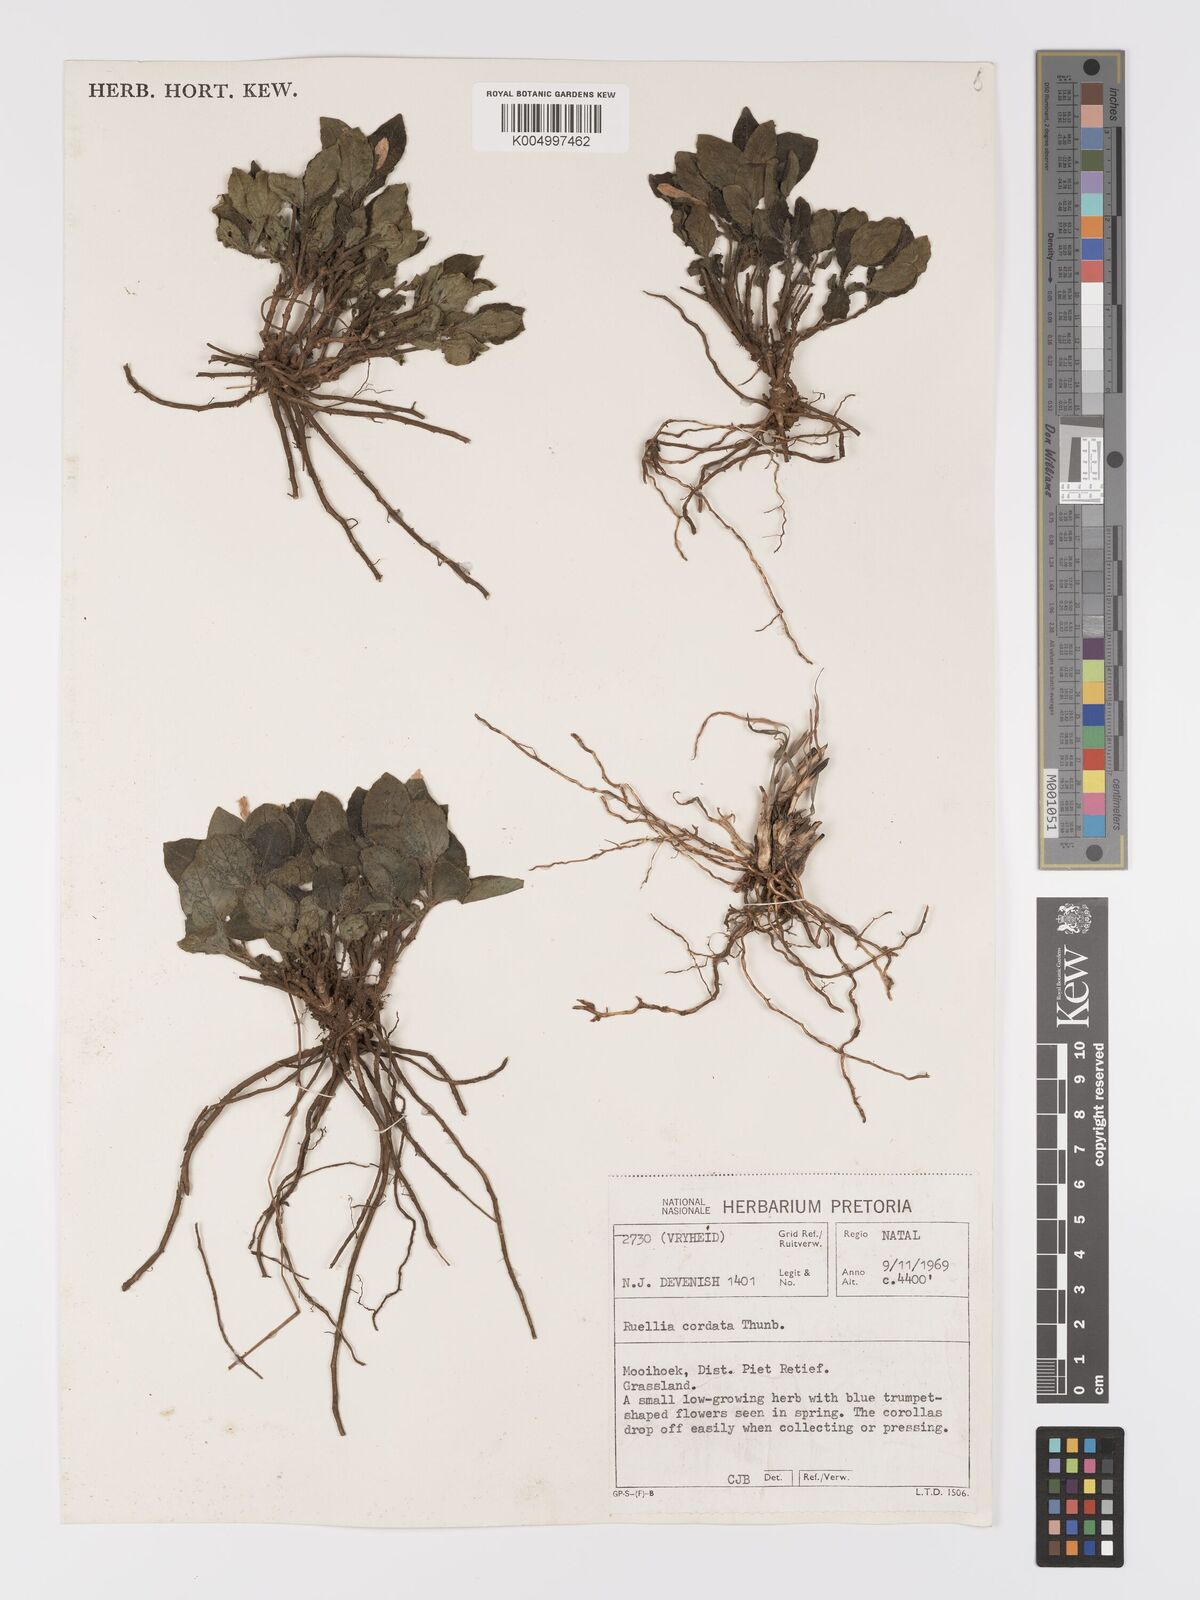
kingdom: Plantae
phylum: Tracheophyta
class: Magnoliopsida
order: Lamiales
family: Acanthaceae
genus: Ruellia
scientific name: Ruellia cordata
